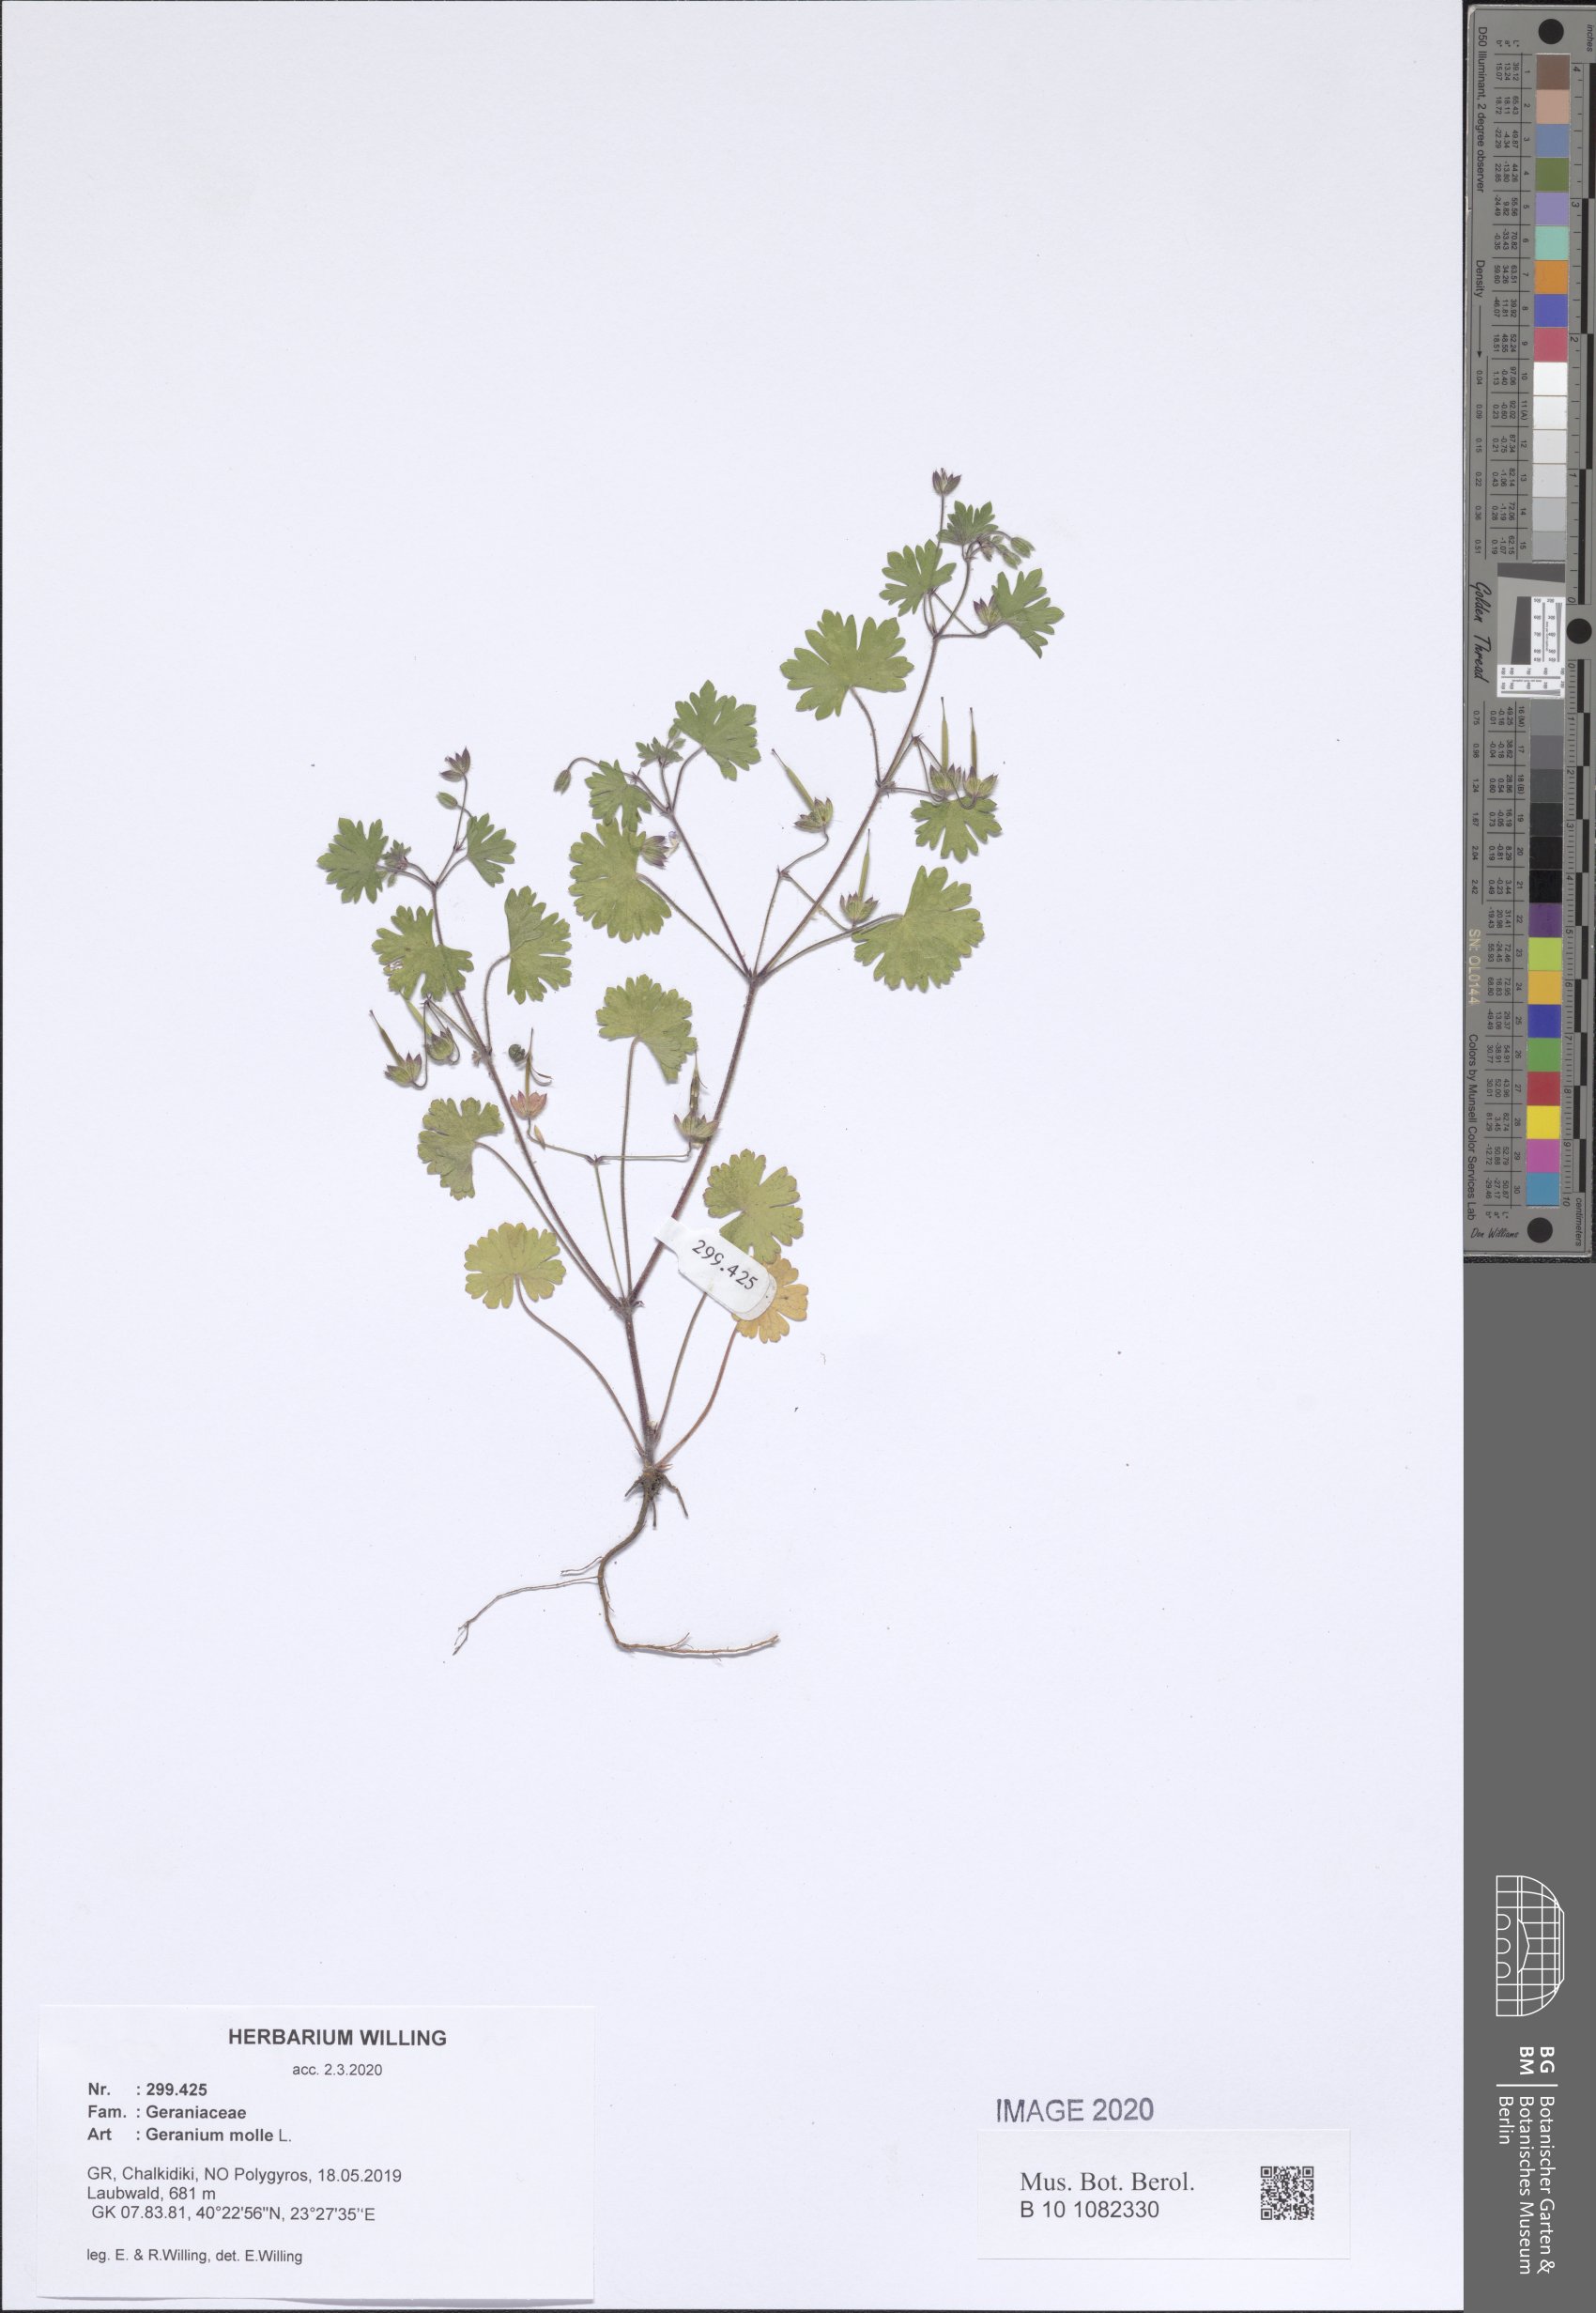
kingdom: Plantae
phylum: Tracheophyta
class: Magnoliopsida
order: Geraniales
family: Geraniaceae
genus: Geranium
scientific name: Geranium molle
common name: Dove's-foot crane's-bill
